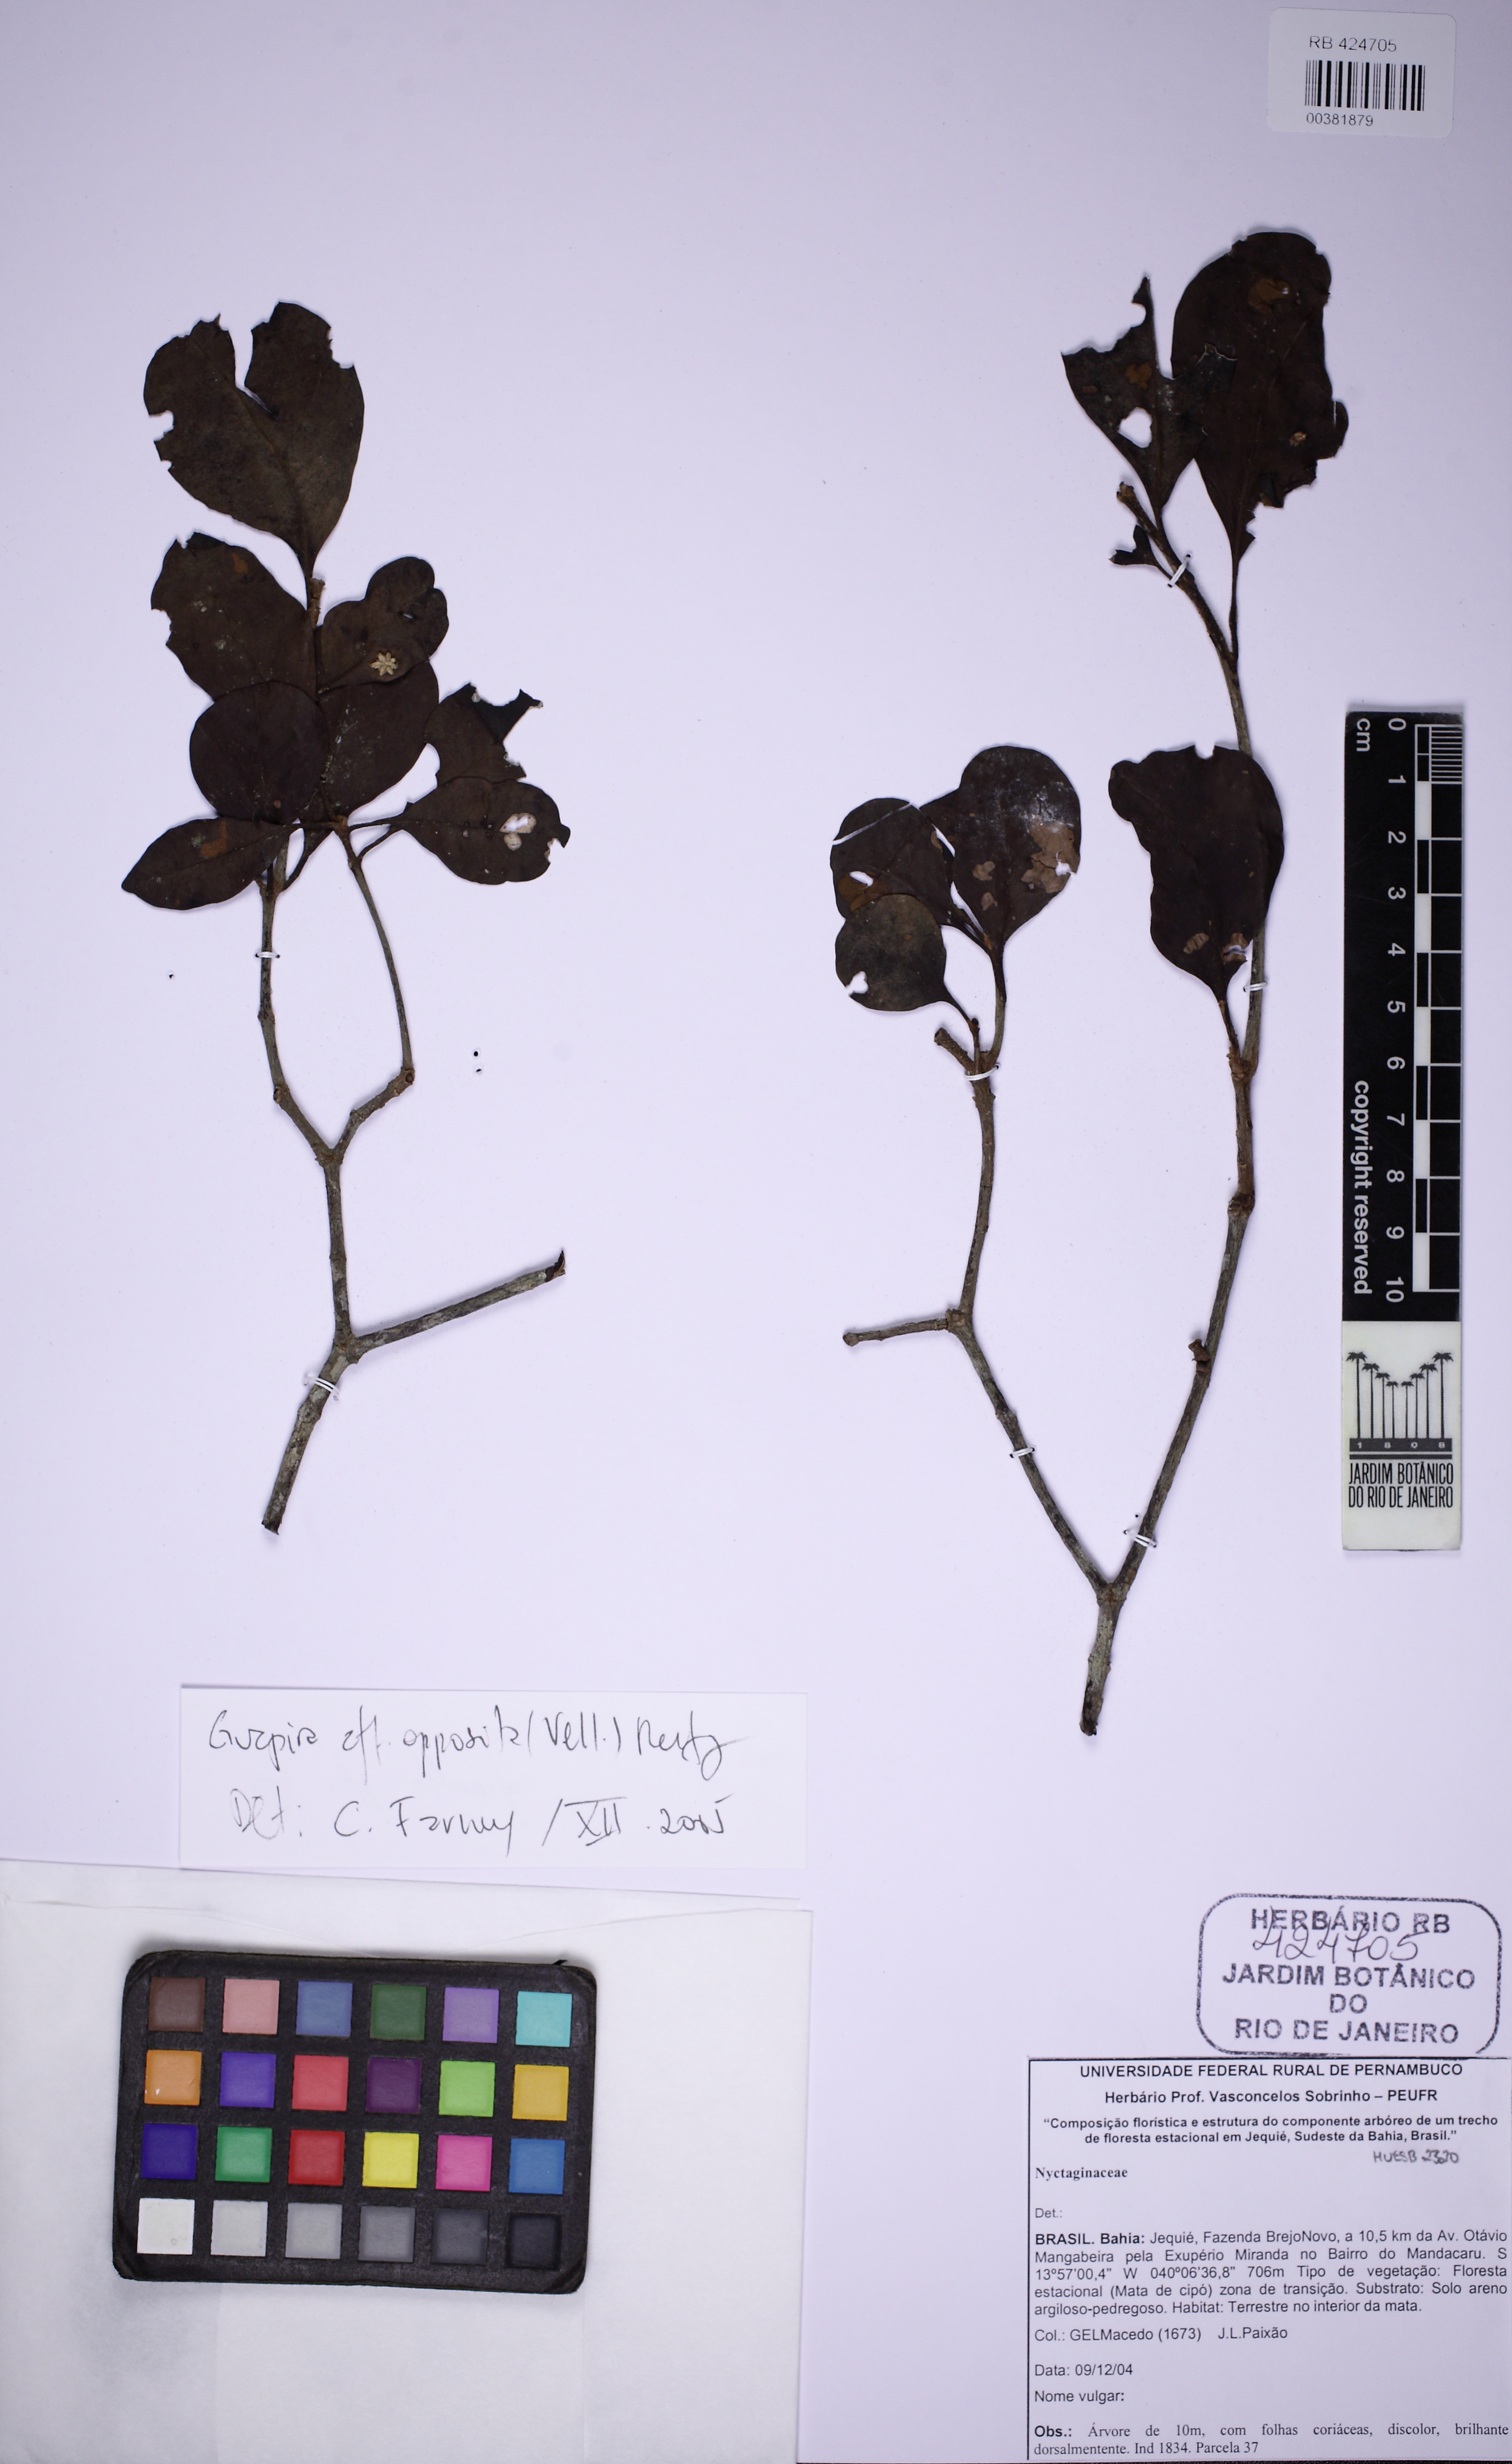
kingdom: Plantae
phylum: Tracheophyta
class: Magnoliopsida
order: Caryophyllales
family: Nyctaginaceae
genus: Guapira
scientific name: Guapira opposita
